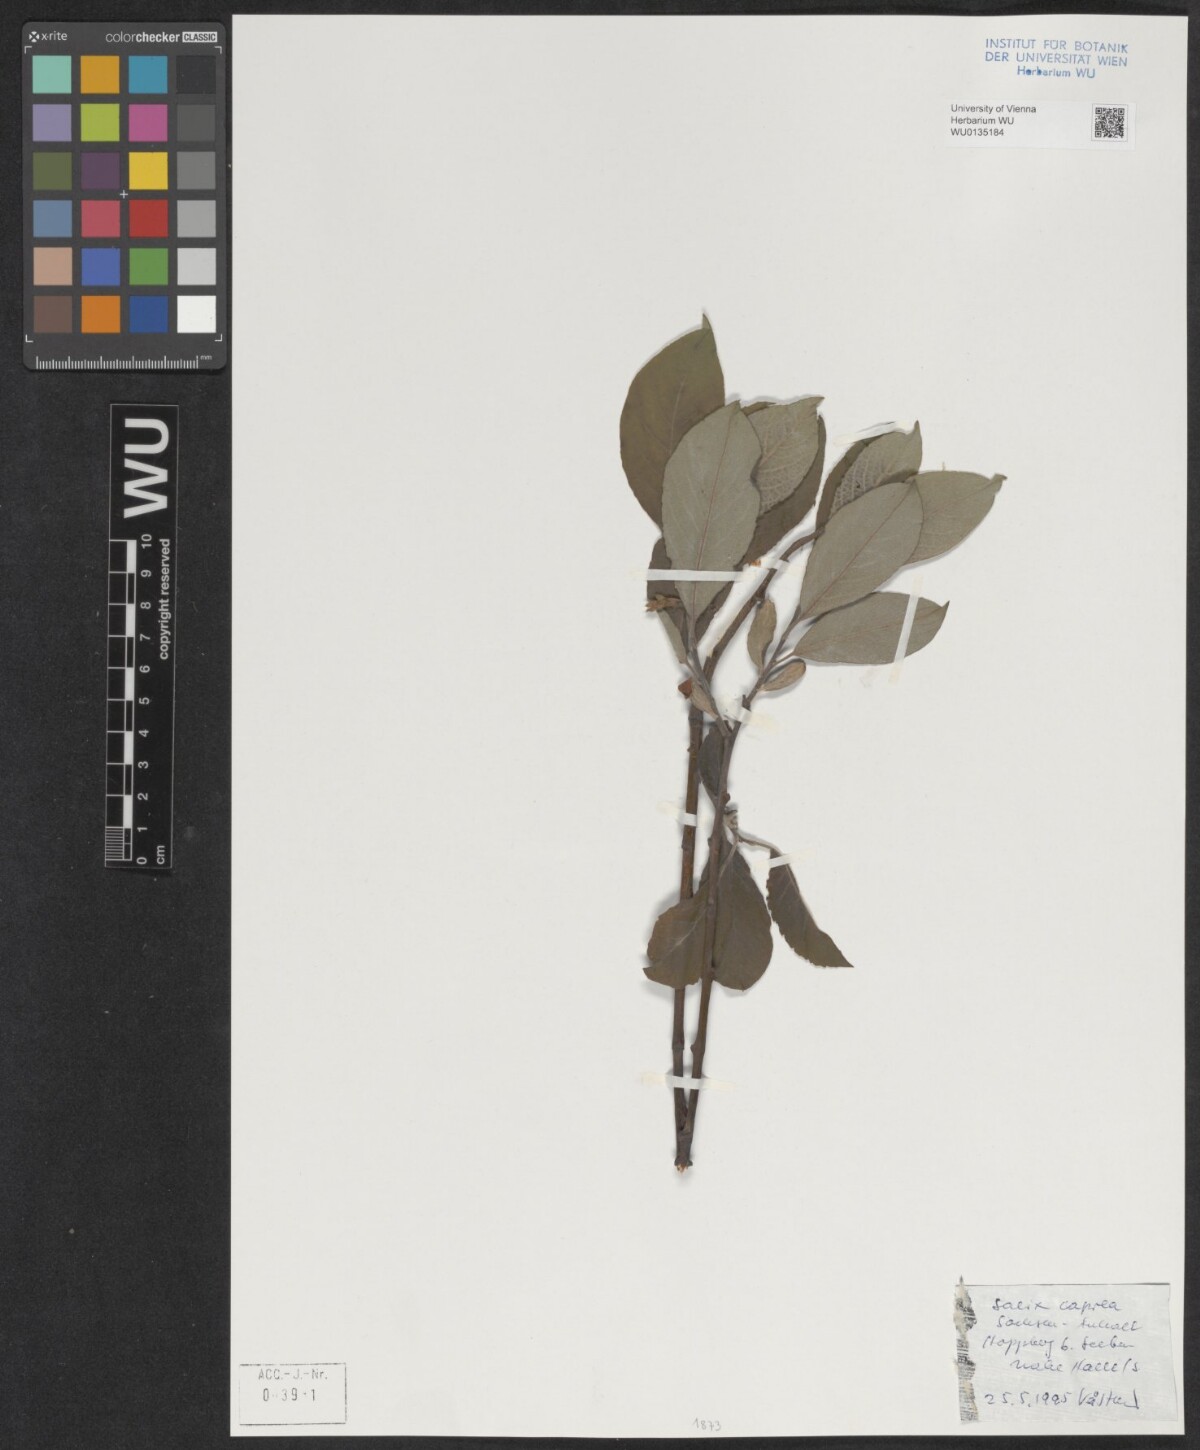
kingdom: Plantae
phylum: Tracheophyta
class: Magnoliopsida
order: Malpighiales
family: Salicaceae
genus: Salix
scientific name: Salix caprea
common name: Goat willow
